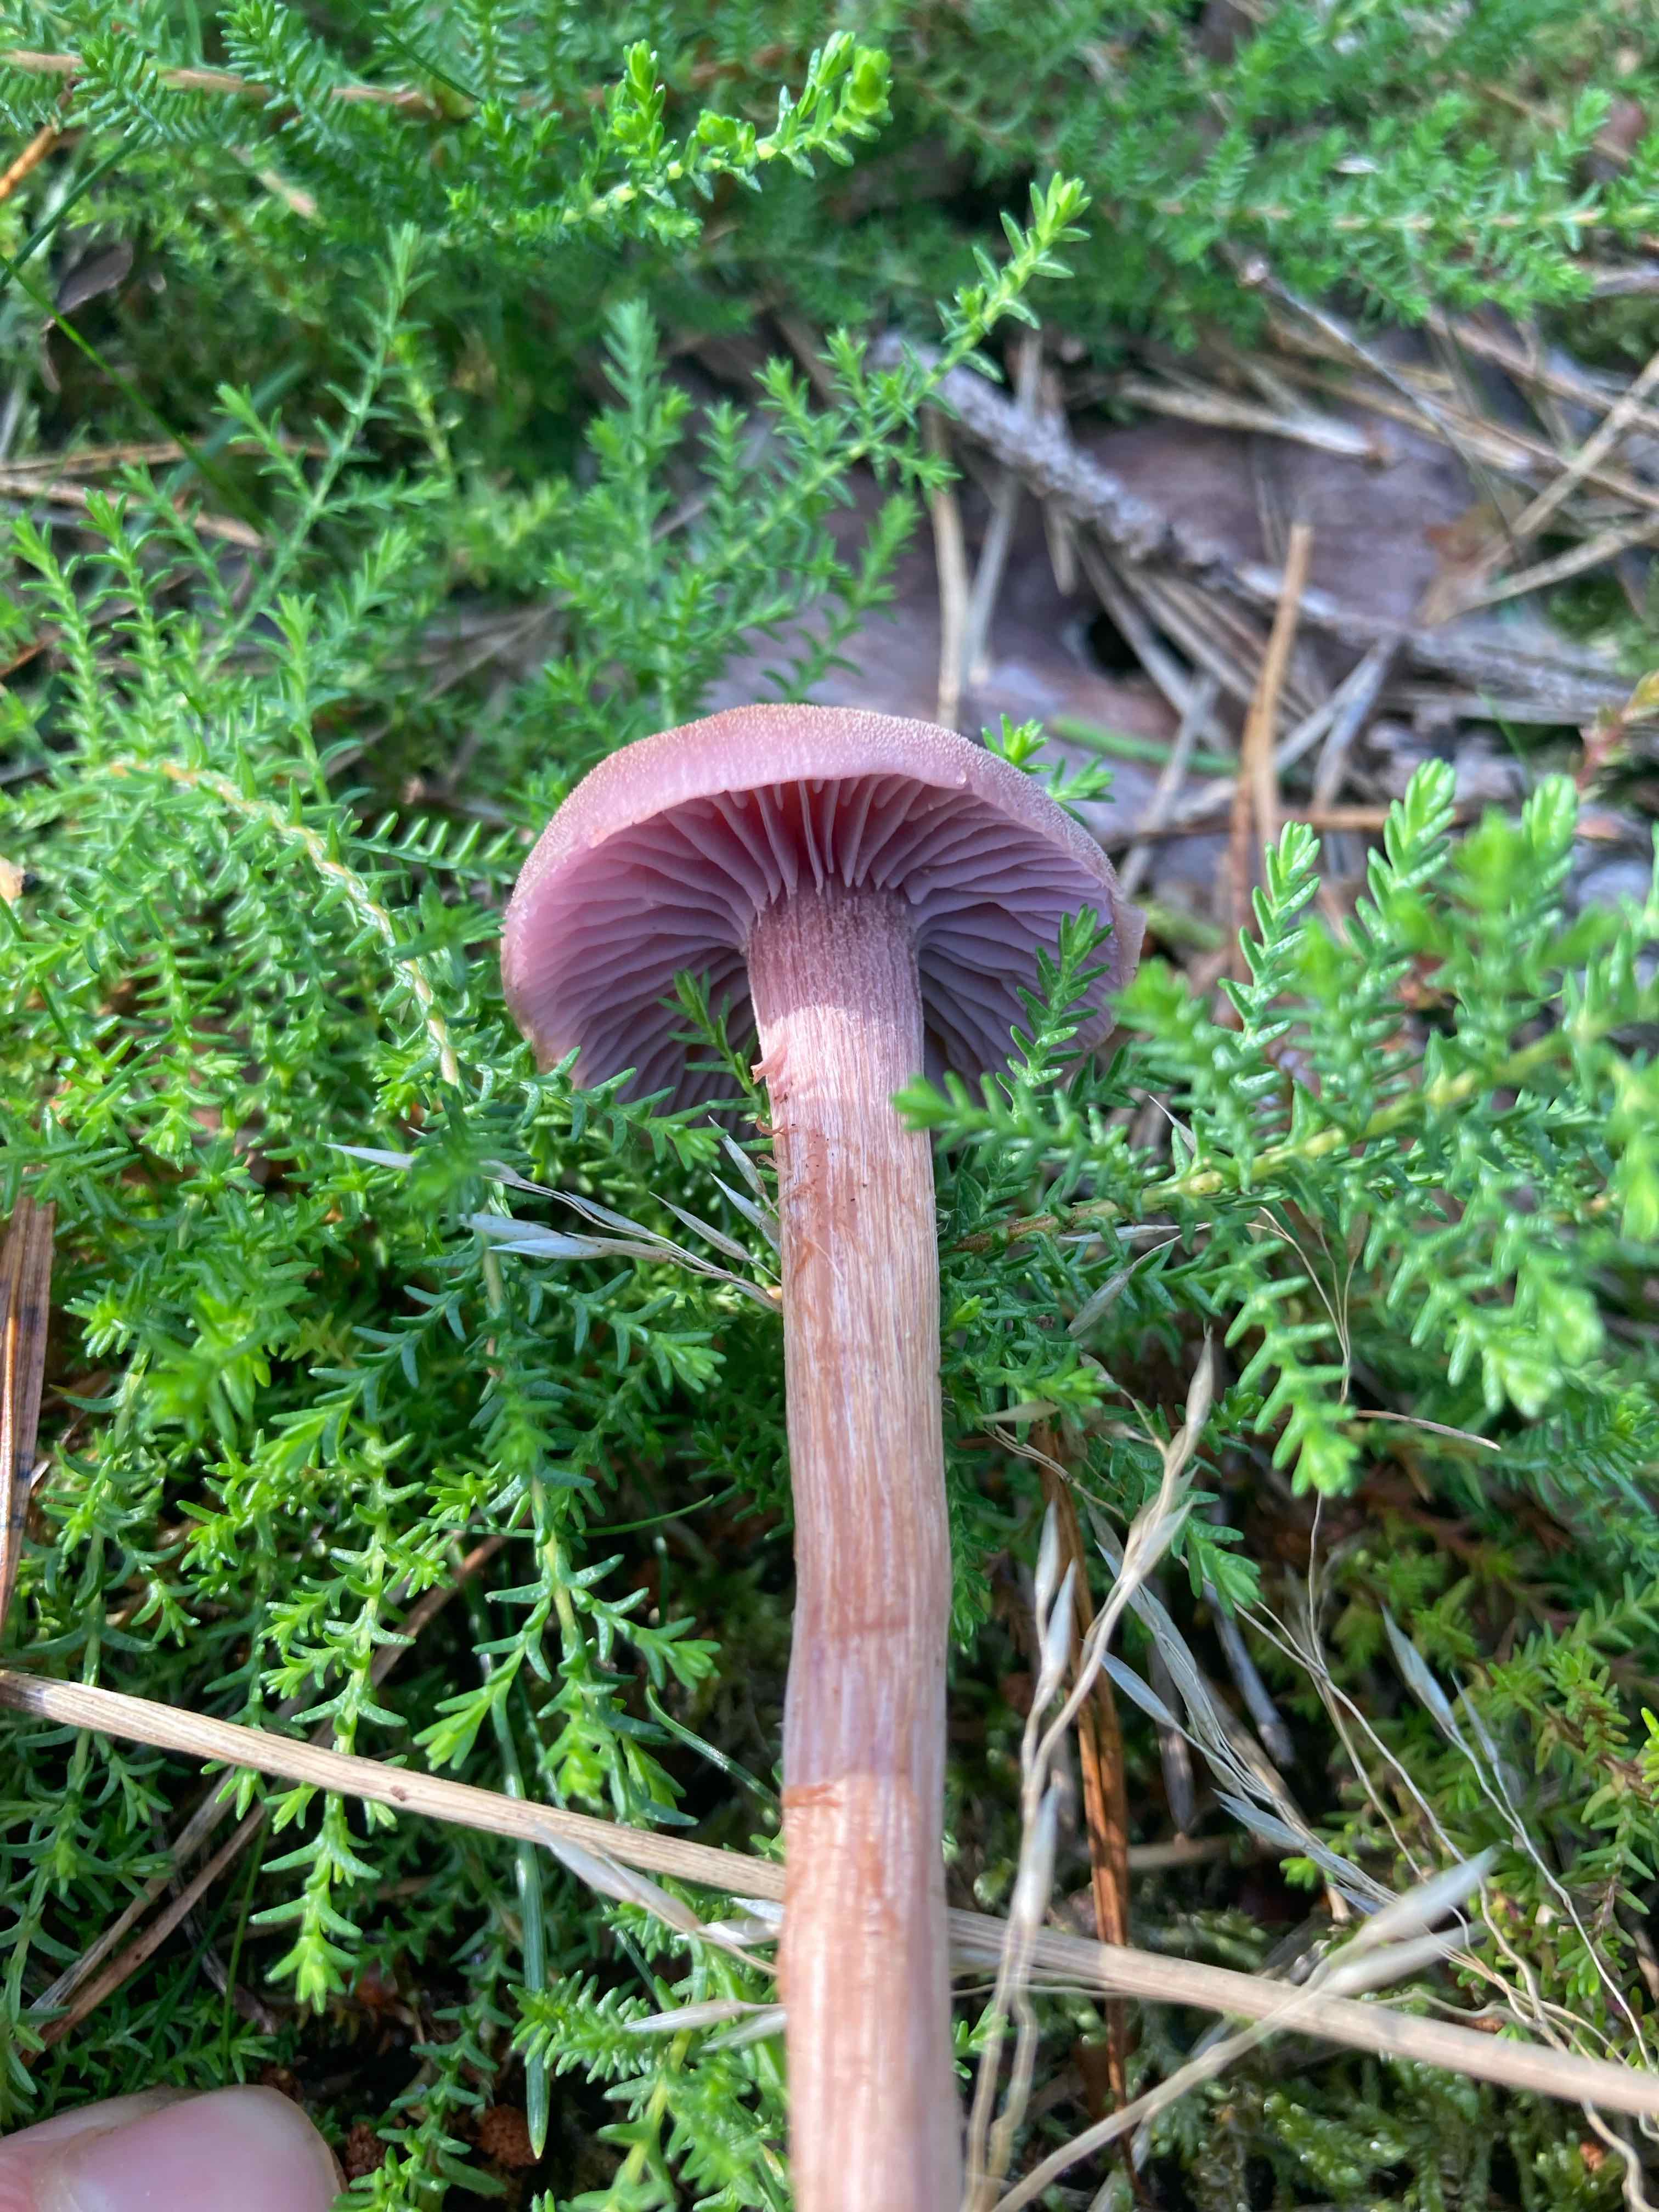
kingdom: Fungi
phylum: Basidiomycota
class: Agaricomycetes
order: Agaricales
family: Hydnangiaceae
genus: Laccaria
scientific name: Laccaria bicolor
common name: tvefarvet ametysthat
